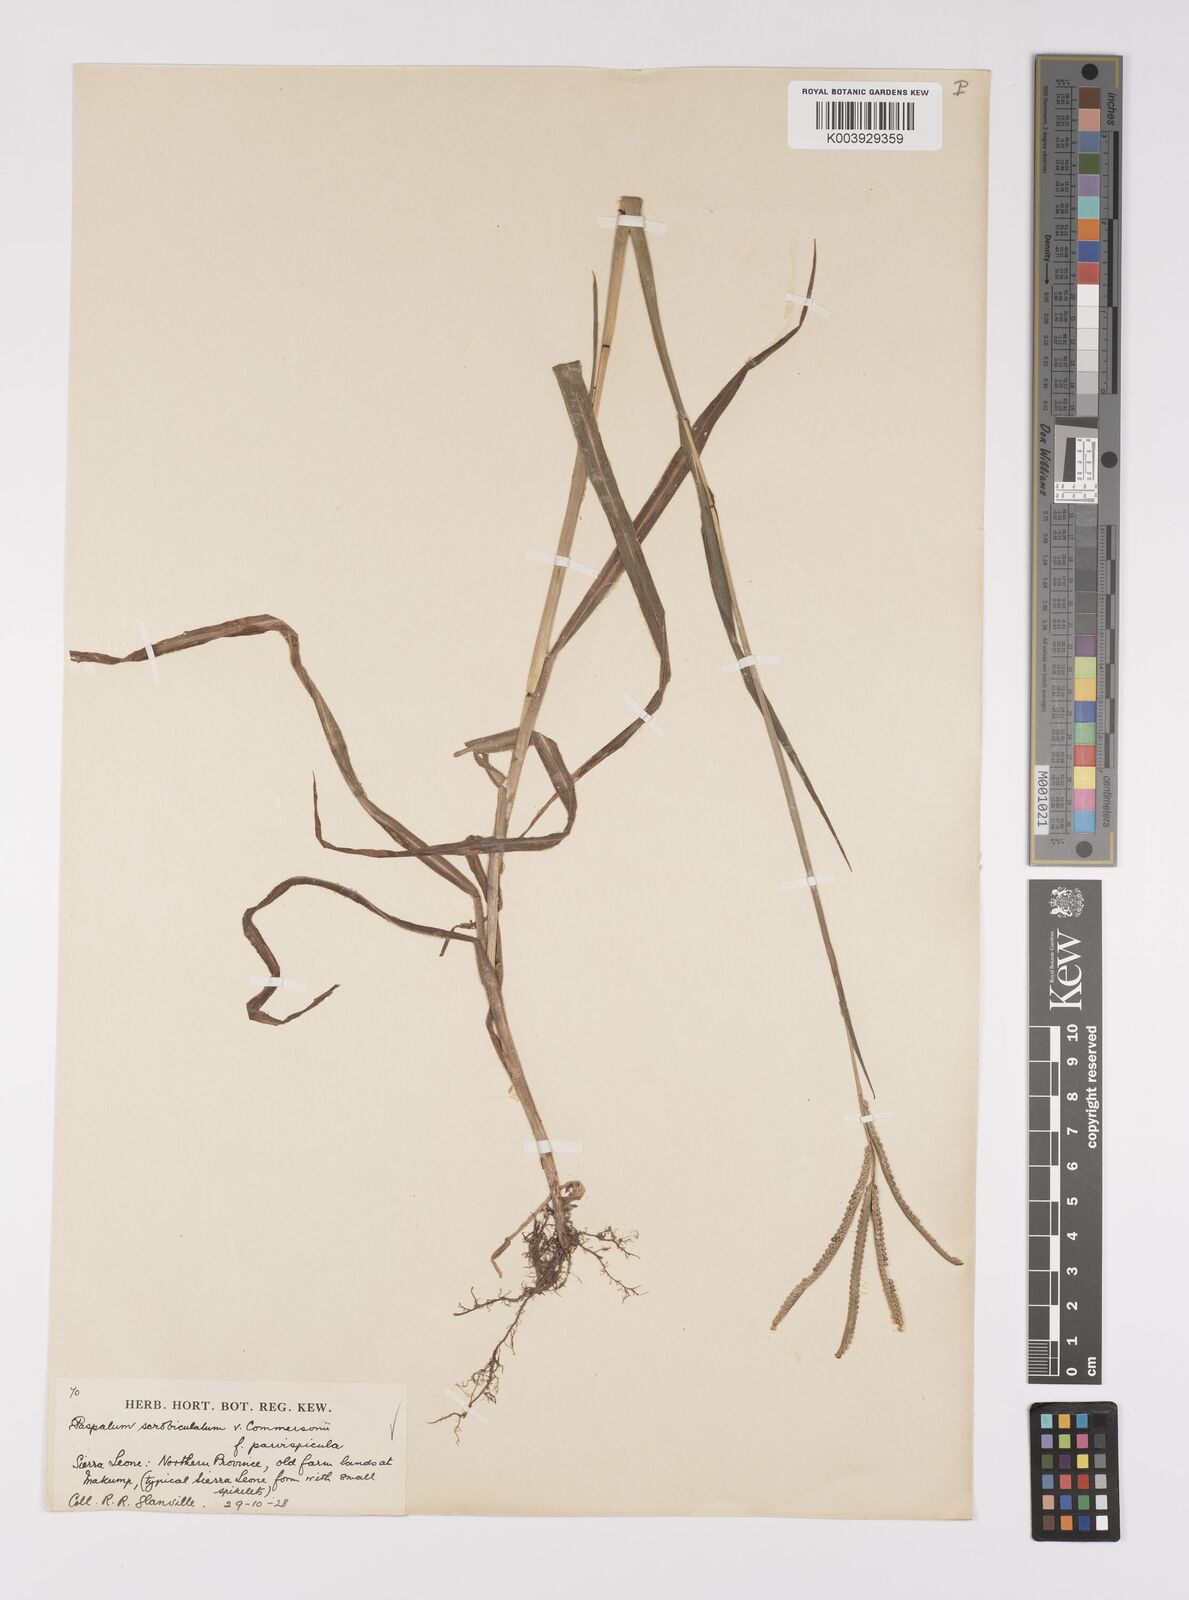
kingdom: Plantae
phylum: Tracheophyta
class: Liliopsida
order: Poales
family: Poaceae
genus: Paspalum
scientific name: Paspalum scrobiculatum
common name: Kodo millet
